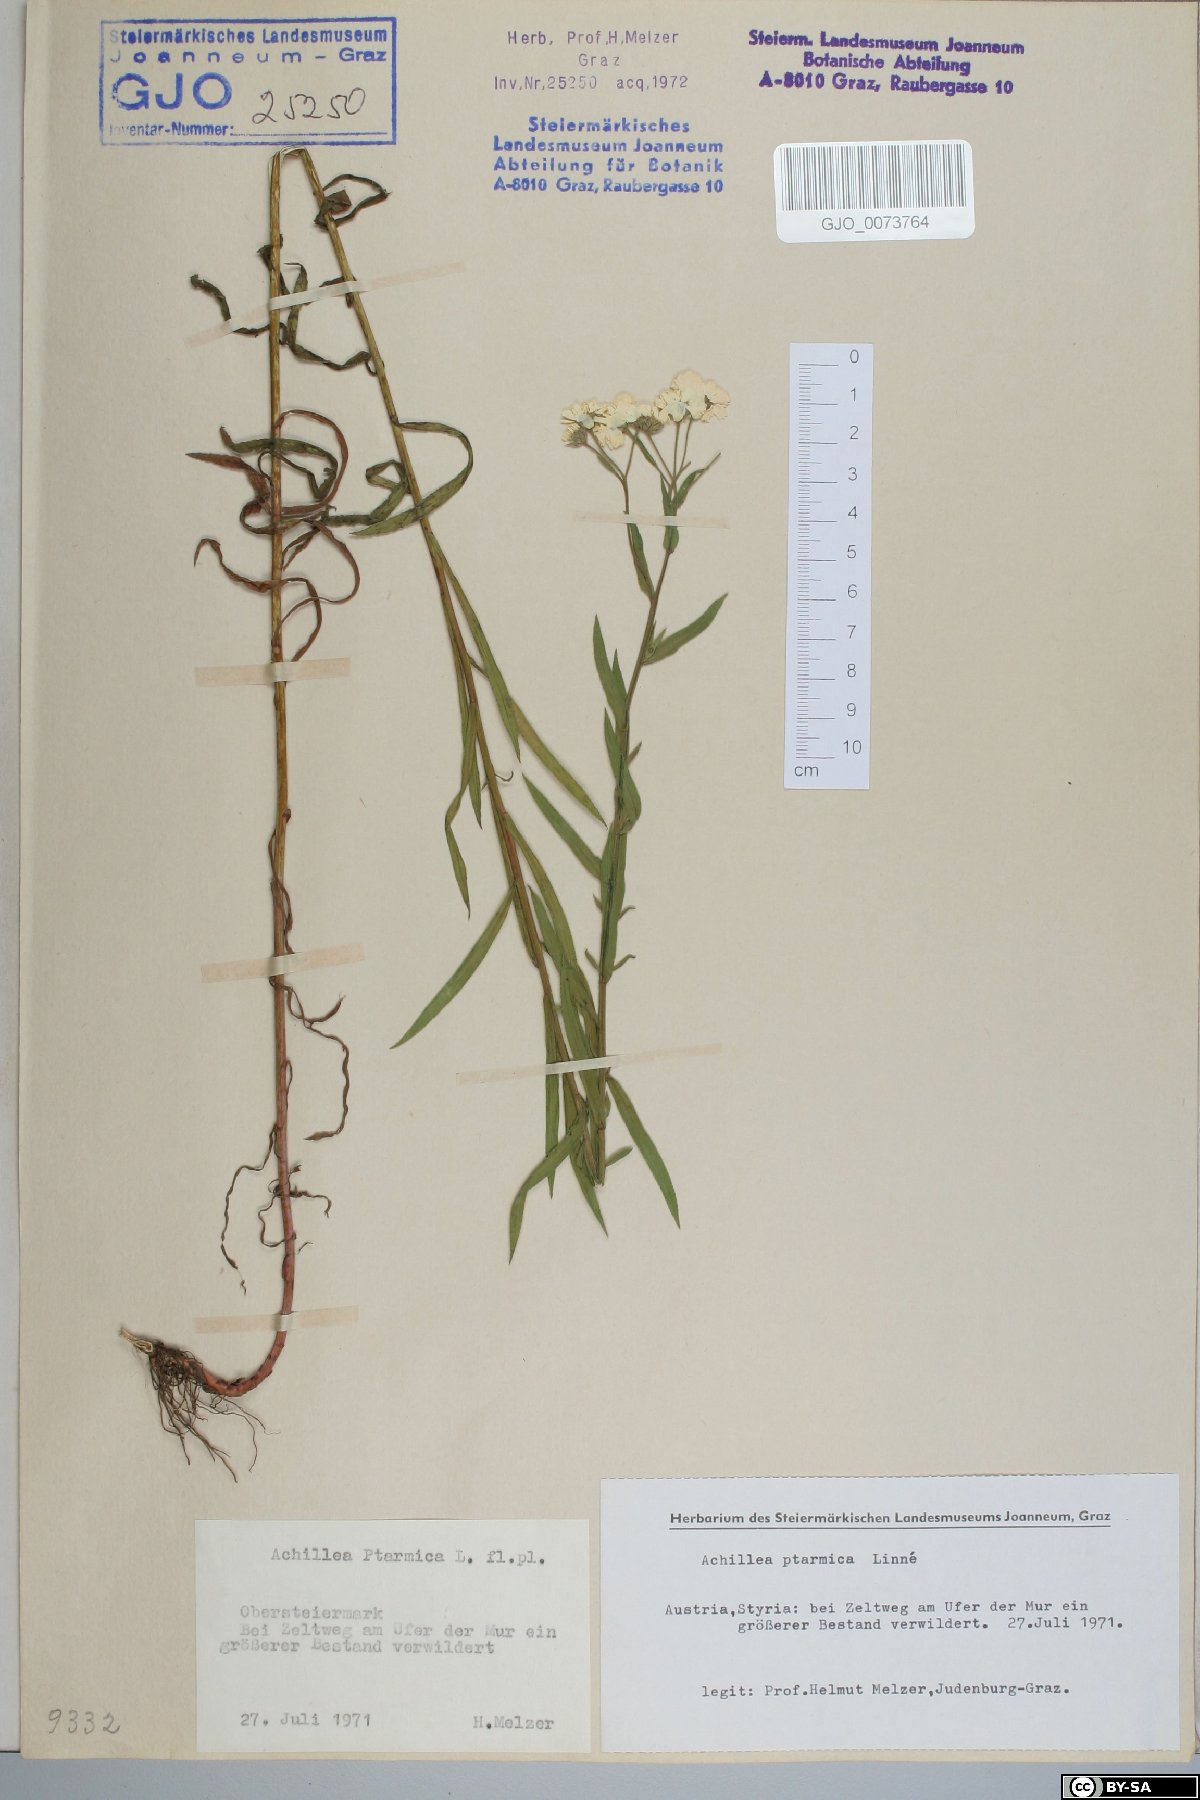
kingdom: Plantae
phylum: Tracheophyta
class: Magnoliopsida
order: Asterales
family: Asteraceae
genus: Achillea
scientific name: Achillea ptarmica
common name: Sneezeweed
